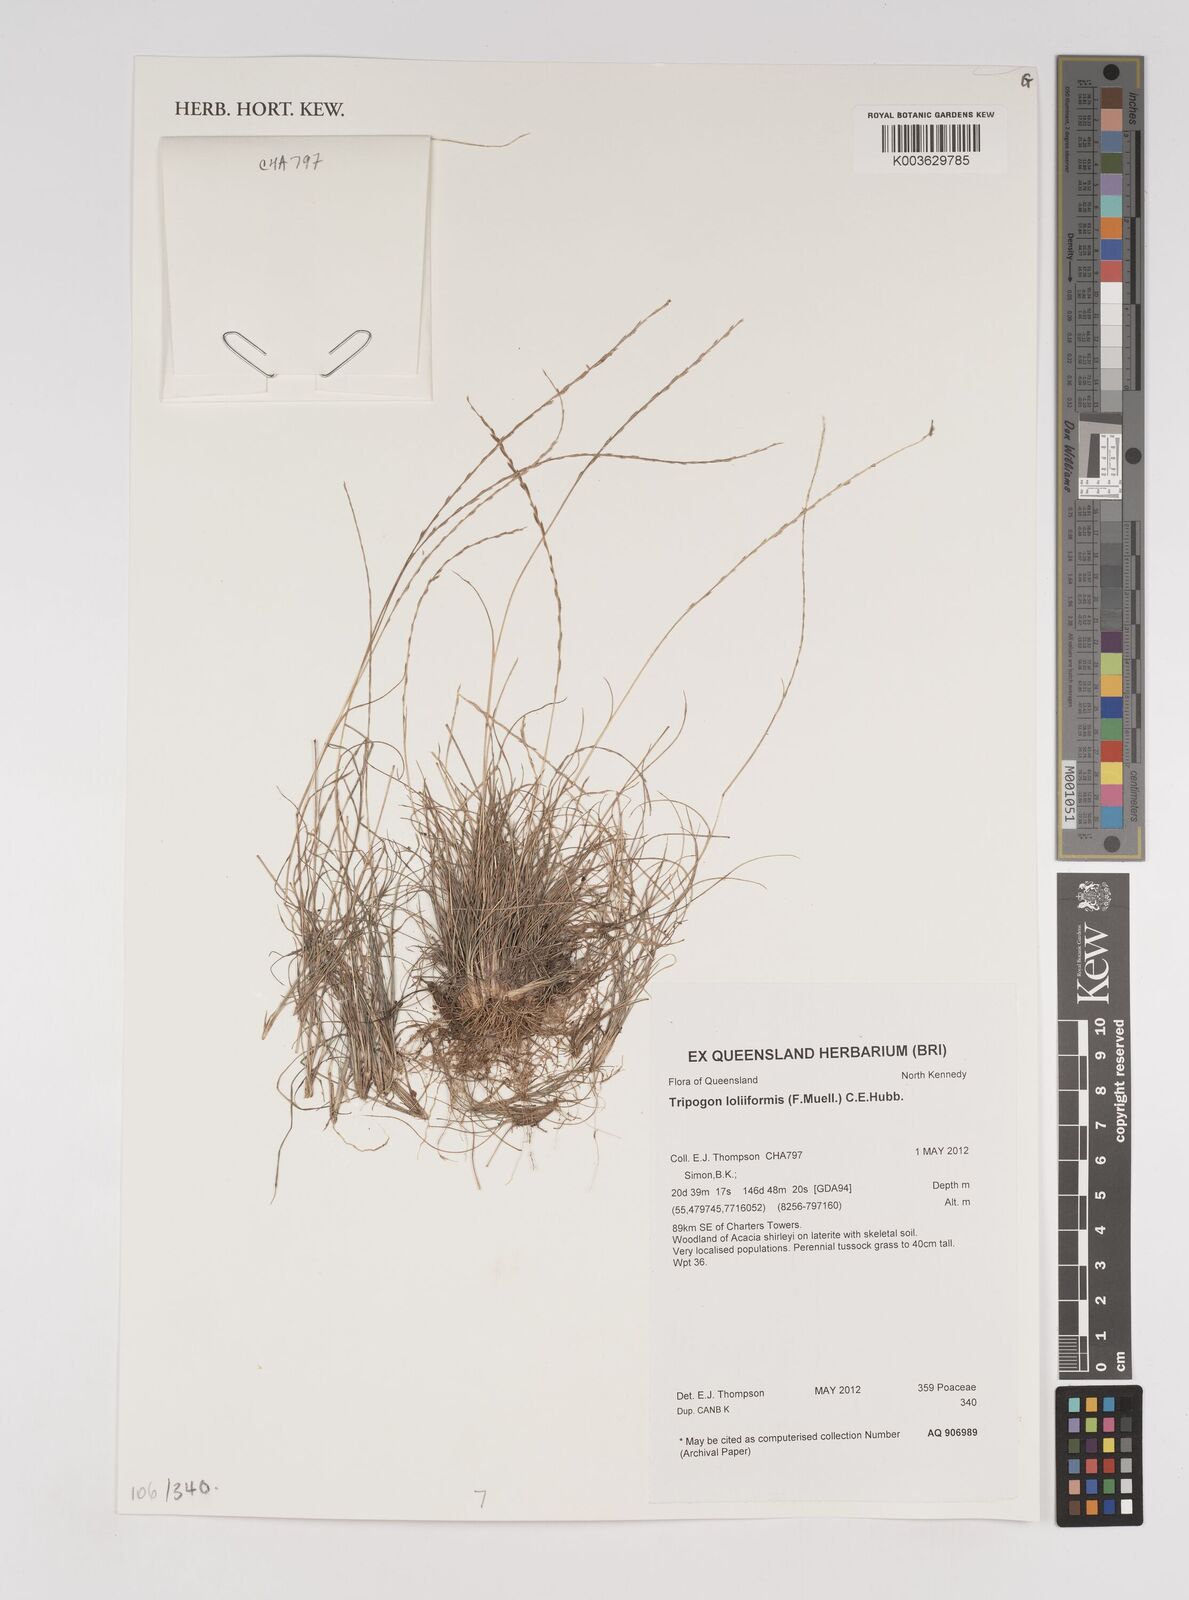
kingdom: Plantae
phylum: Tracheophyta
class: Liliopsida
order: Poales
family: Poaceae
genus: Tripogonella
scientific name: Tripogonella loliiformis
